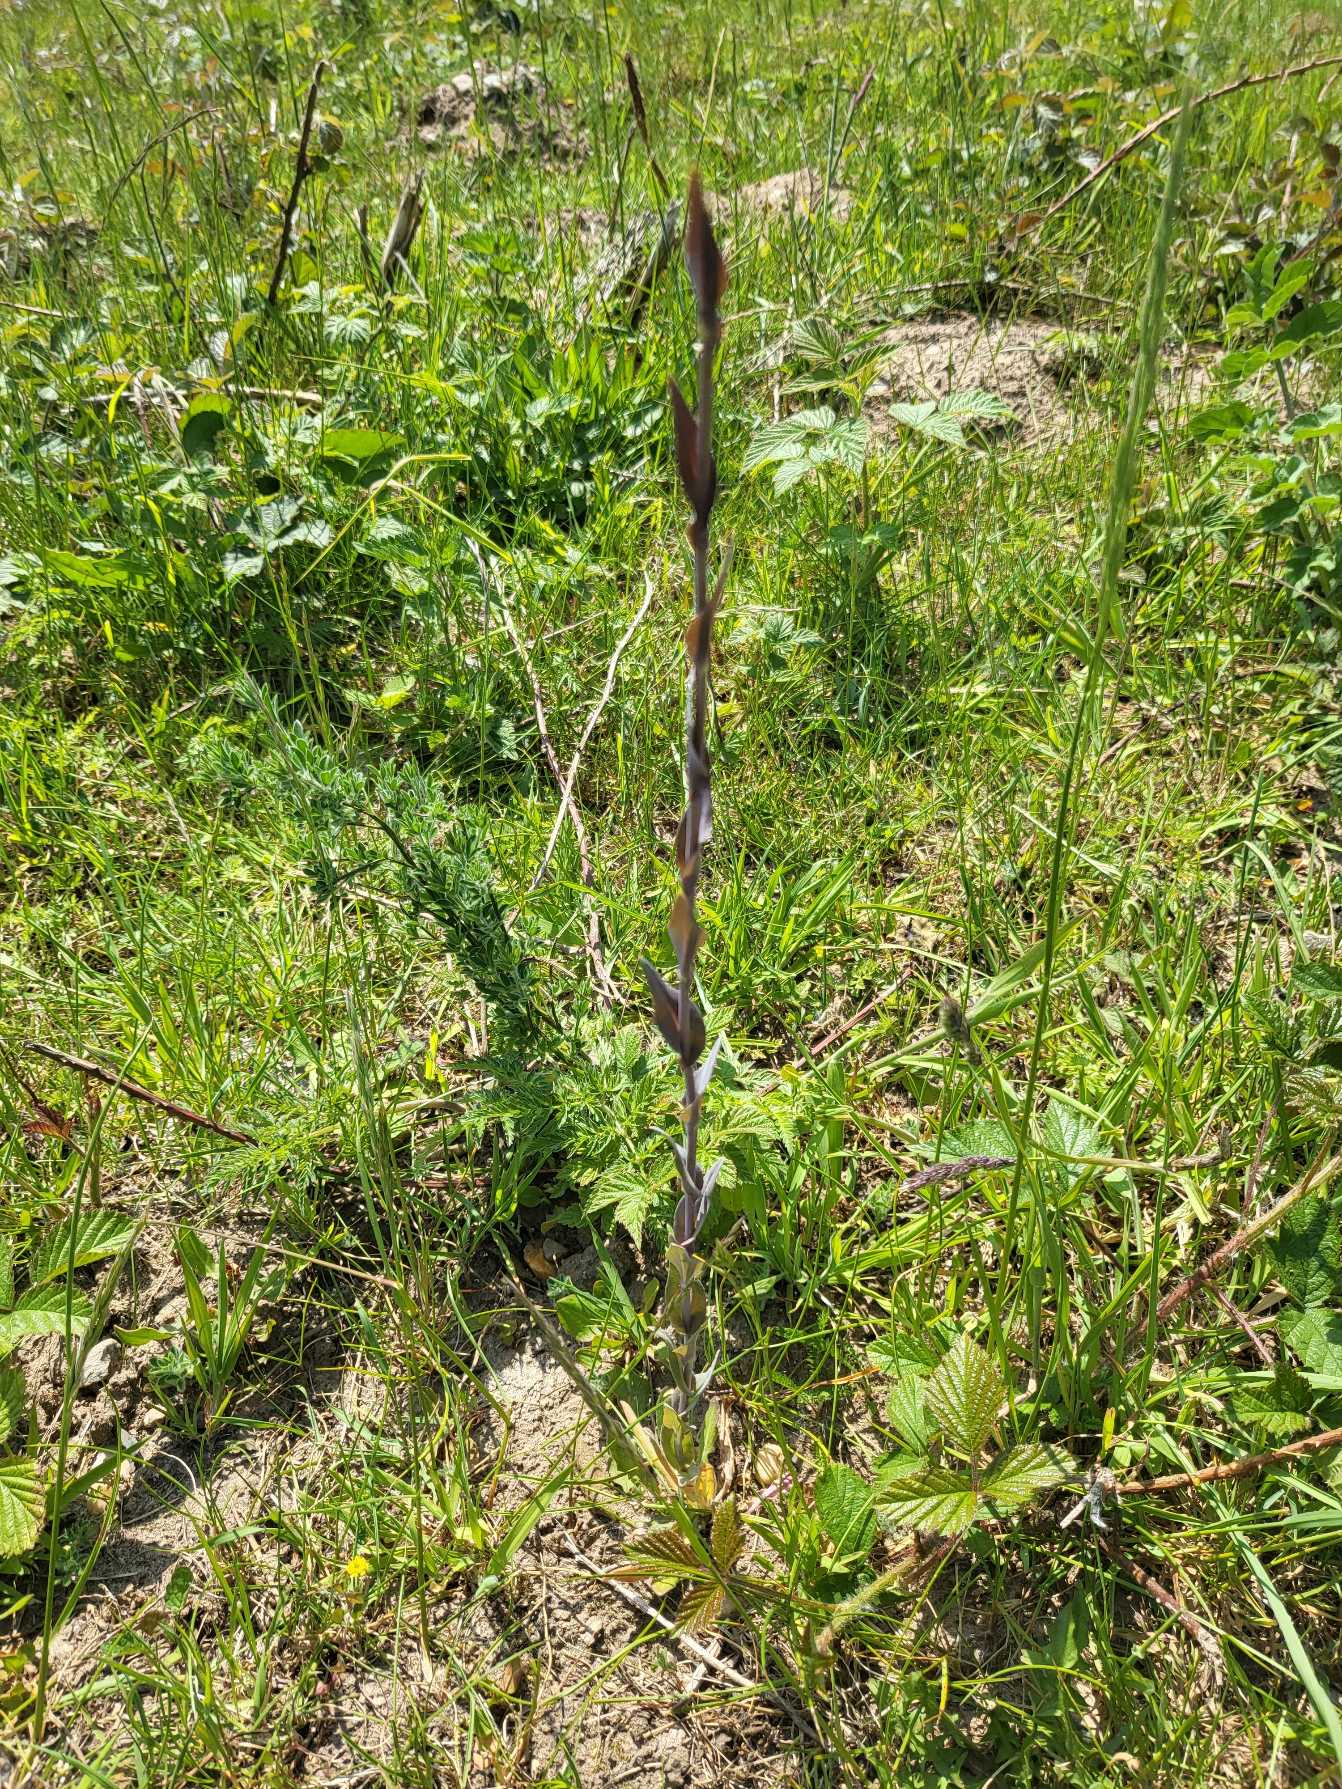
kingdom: Plantae
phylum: Tracheophyta
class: Magnoliopsida
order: Brassicales
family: Brassicaceae
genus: Turritis
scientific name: Turritis glabra
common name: Tårnurt
